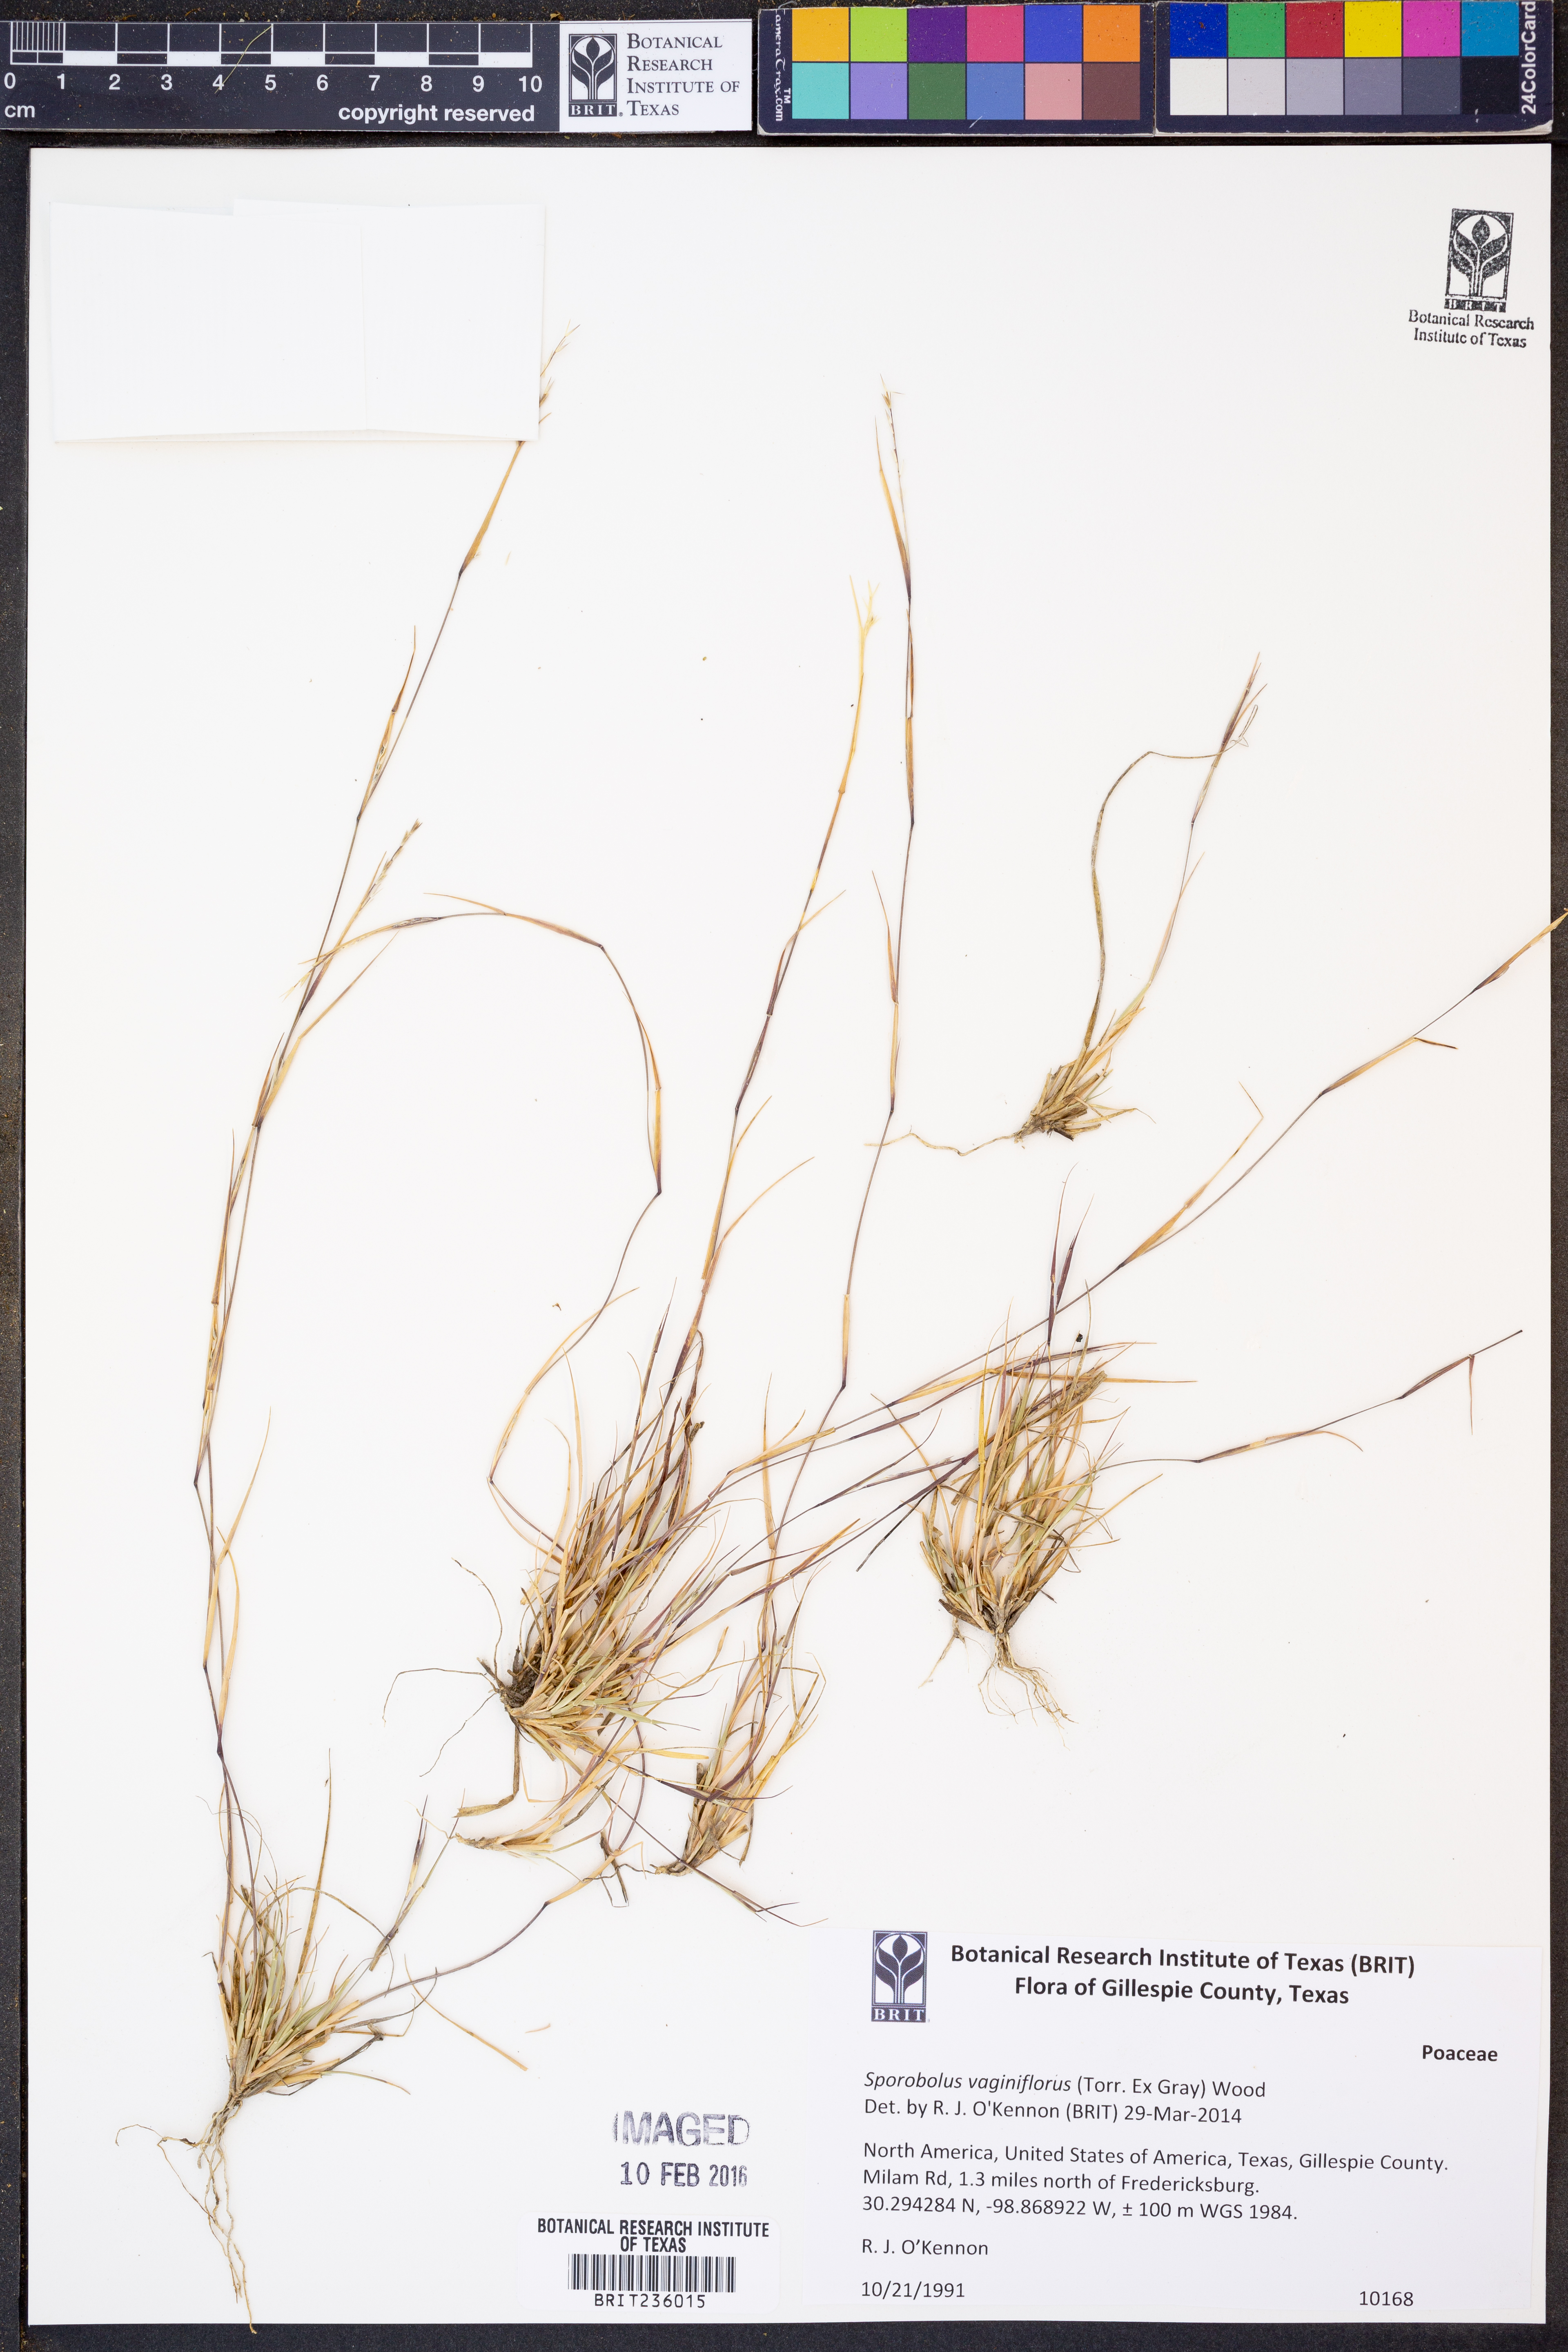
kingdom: Plantae
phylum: Tracheophyta
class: Liliopsida
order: Poales
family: Poaceae
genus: Sporobolus
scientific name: Sporobolus vaginiflorus
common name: Poverty dropseed
